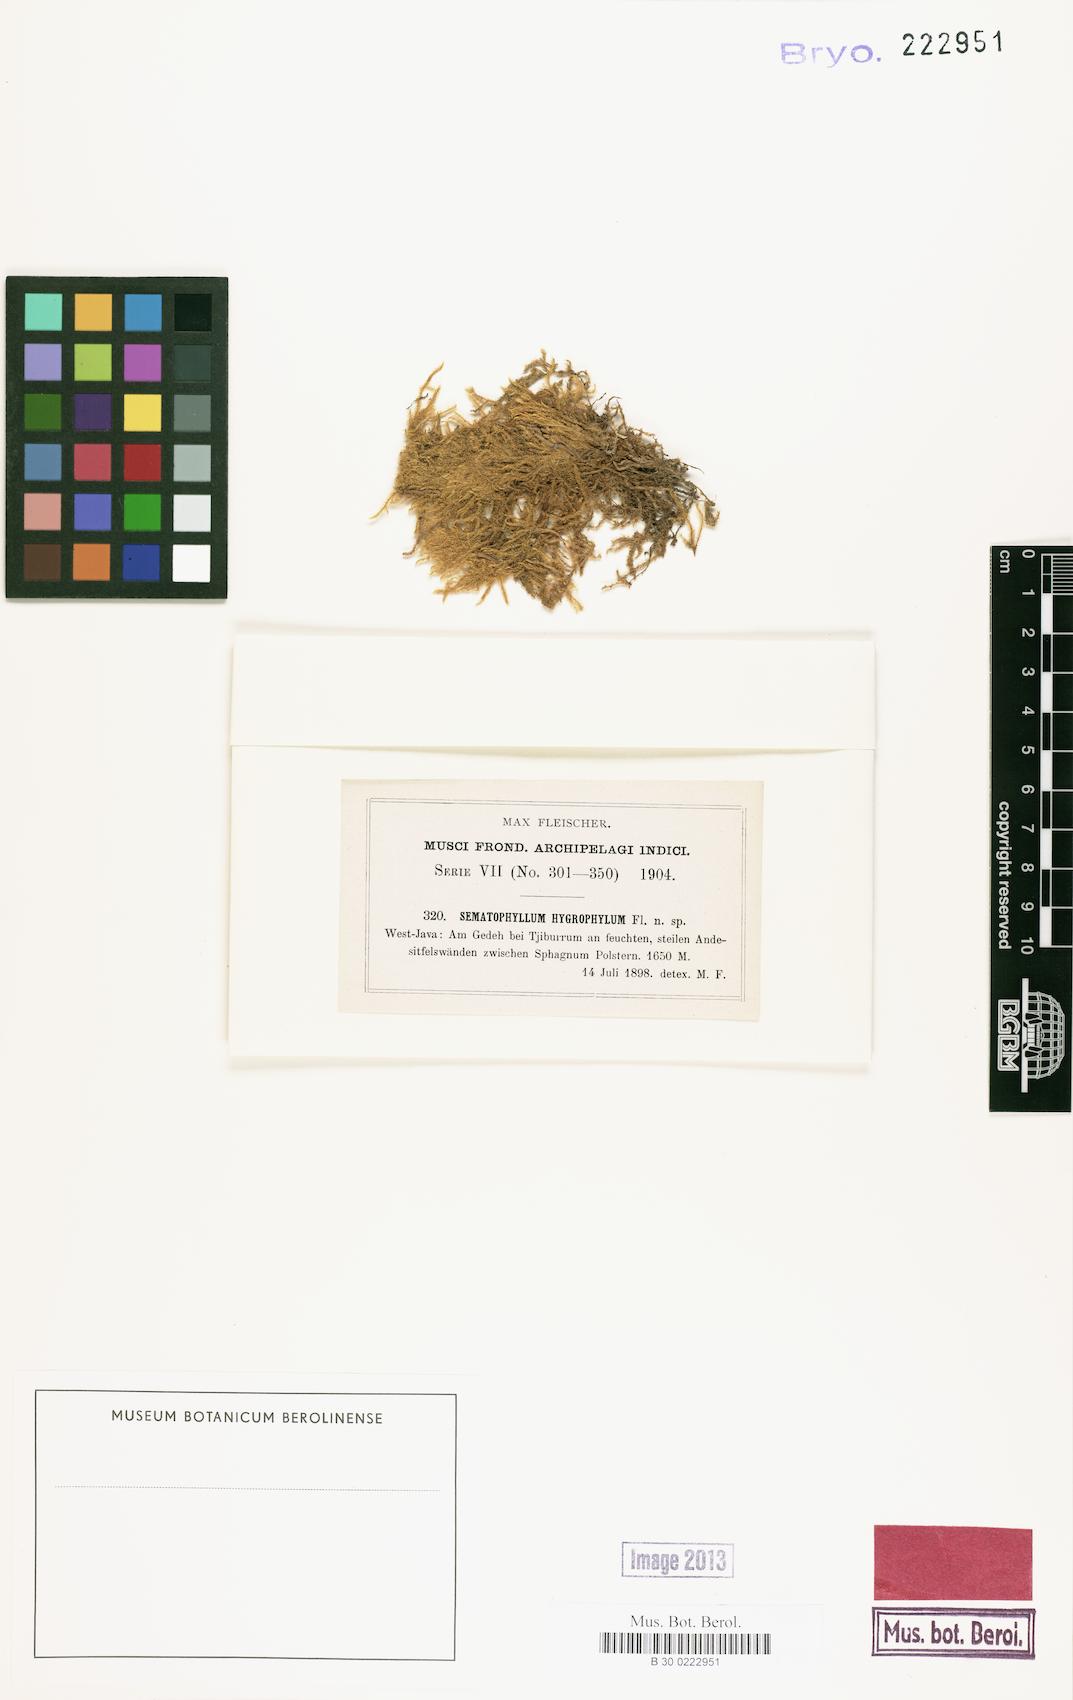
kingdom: Plantae
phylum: Bryophyta
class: Bryopsida
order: Hypnales
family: Sematophyllaceae
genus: Warburgiella
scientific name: Warburgiella hygrophila
